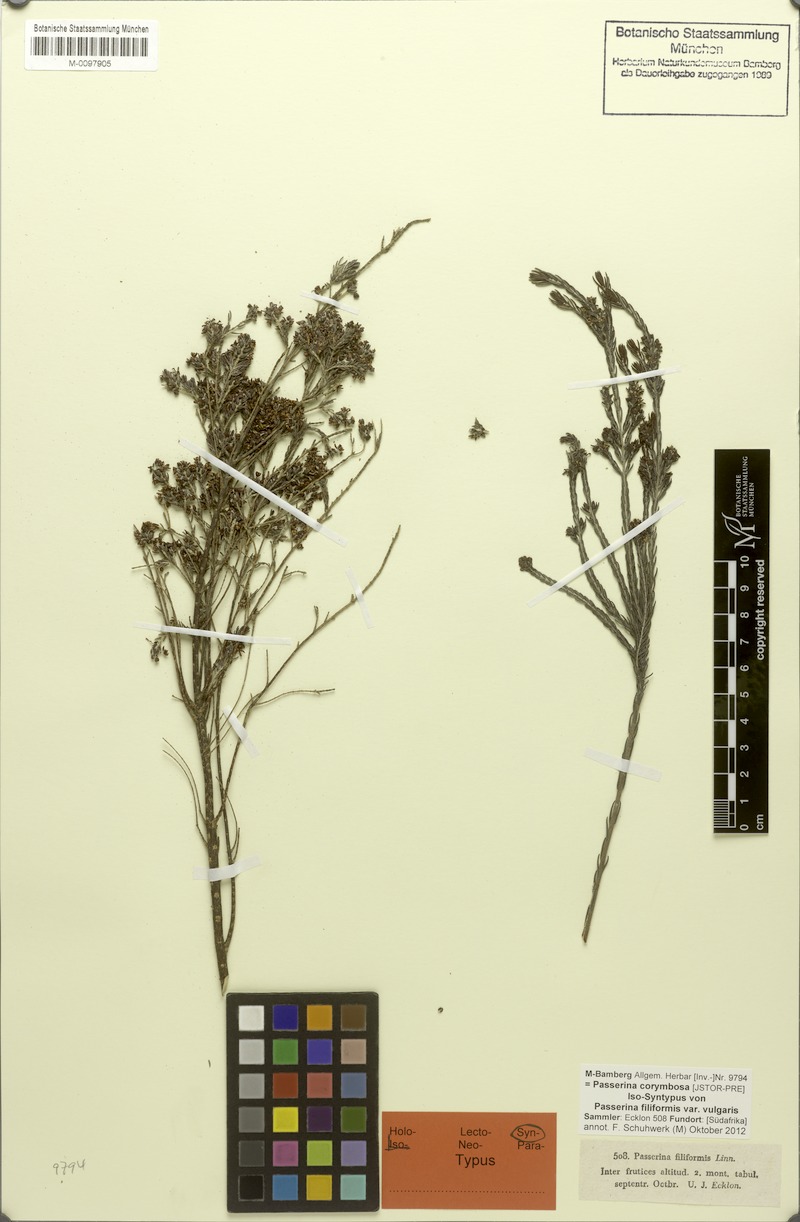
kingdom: Plantae
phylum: Tracheophyta
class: Magnoliopsida
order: Malvales
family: Thymelaeaceae
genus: Passerina
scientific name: Passerina corymbosa
